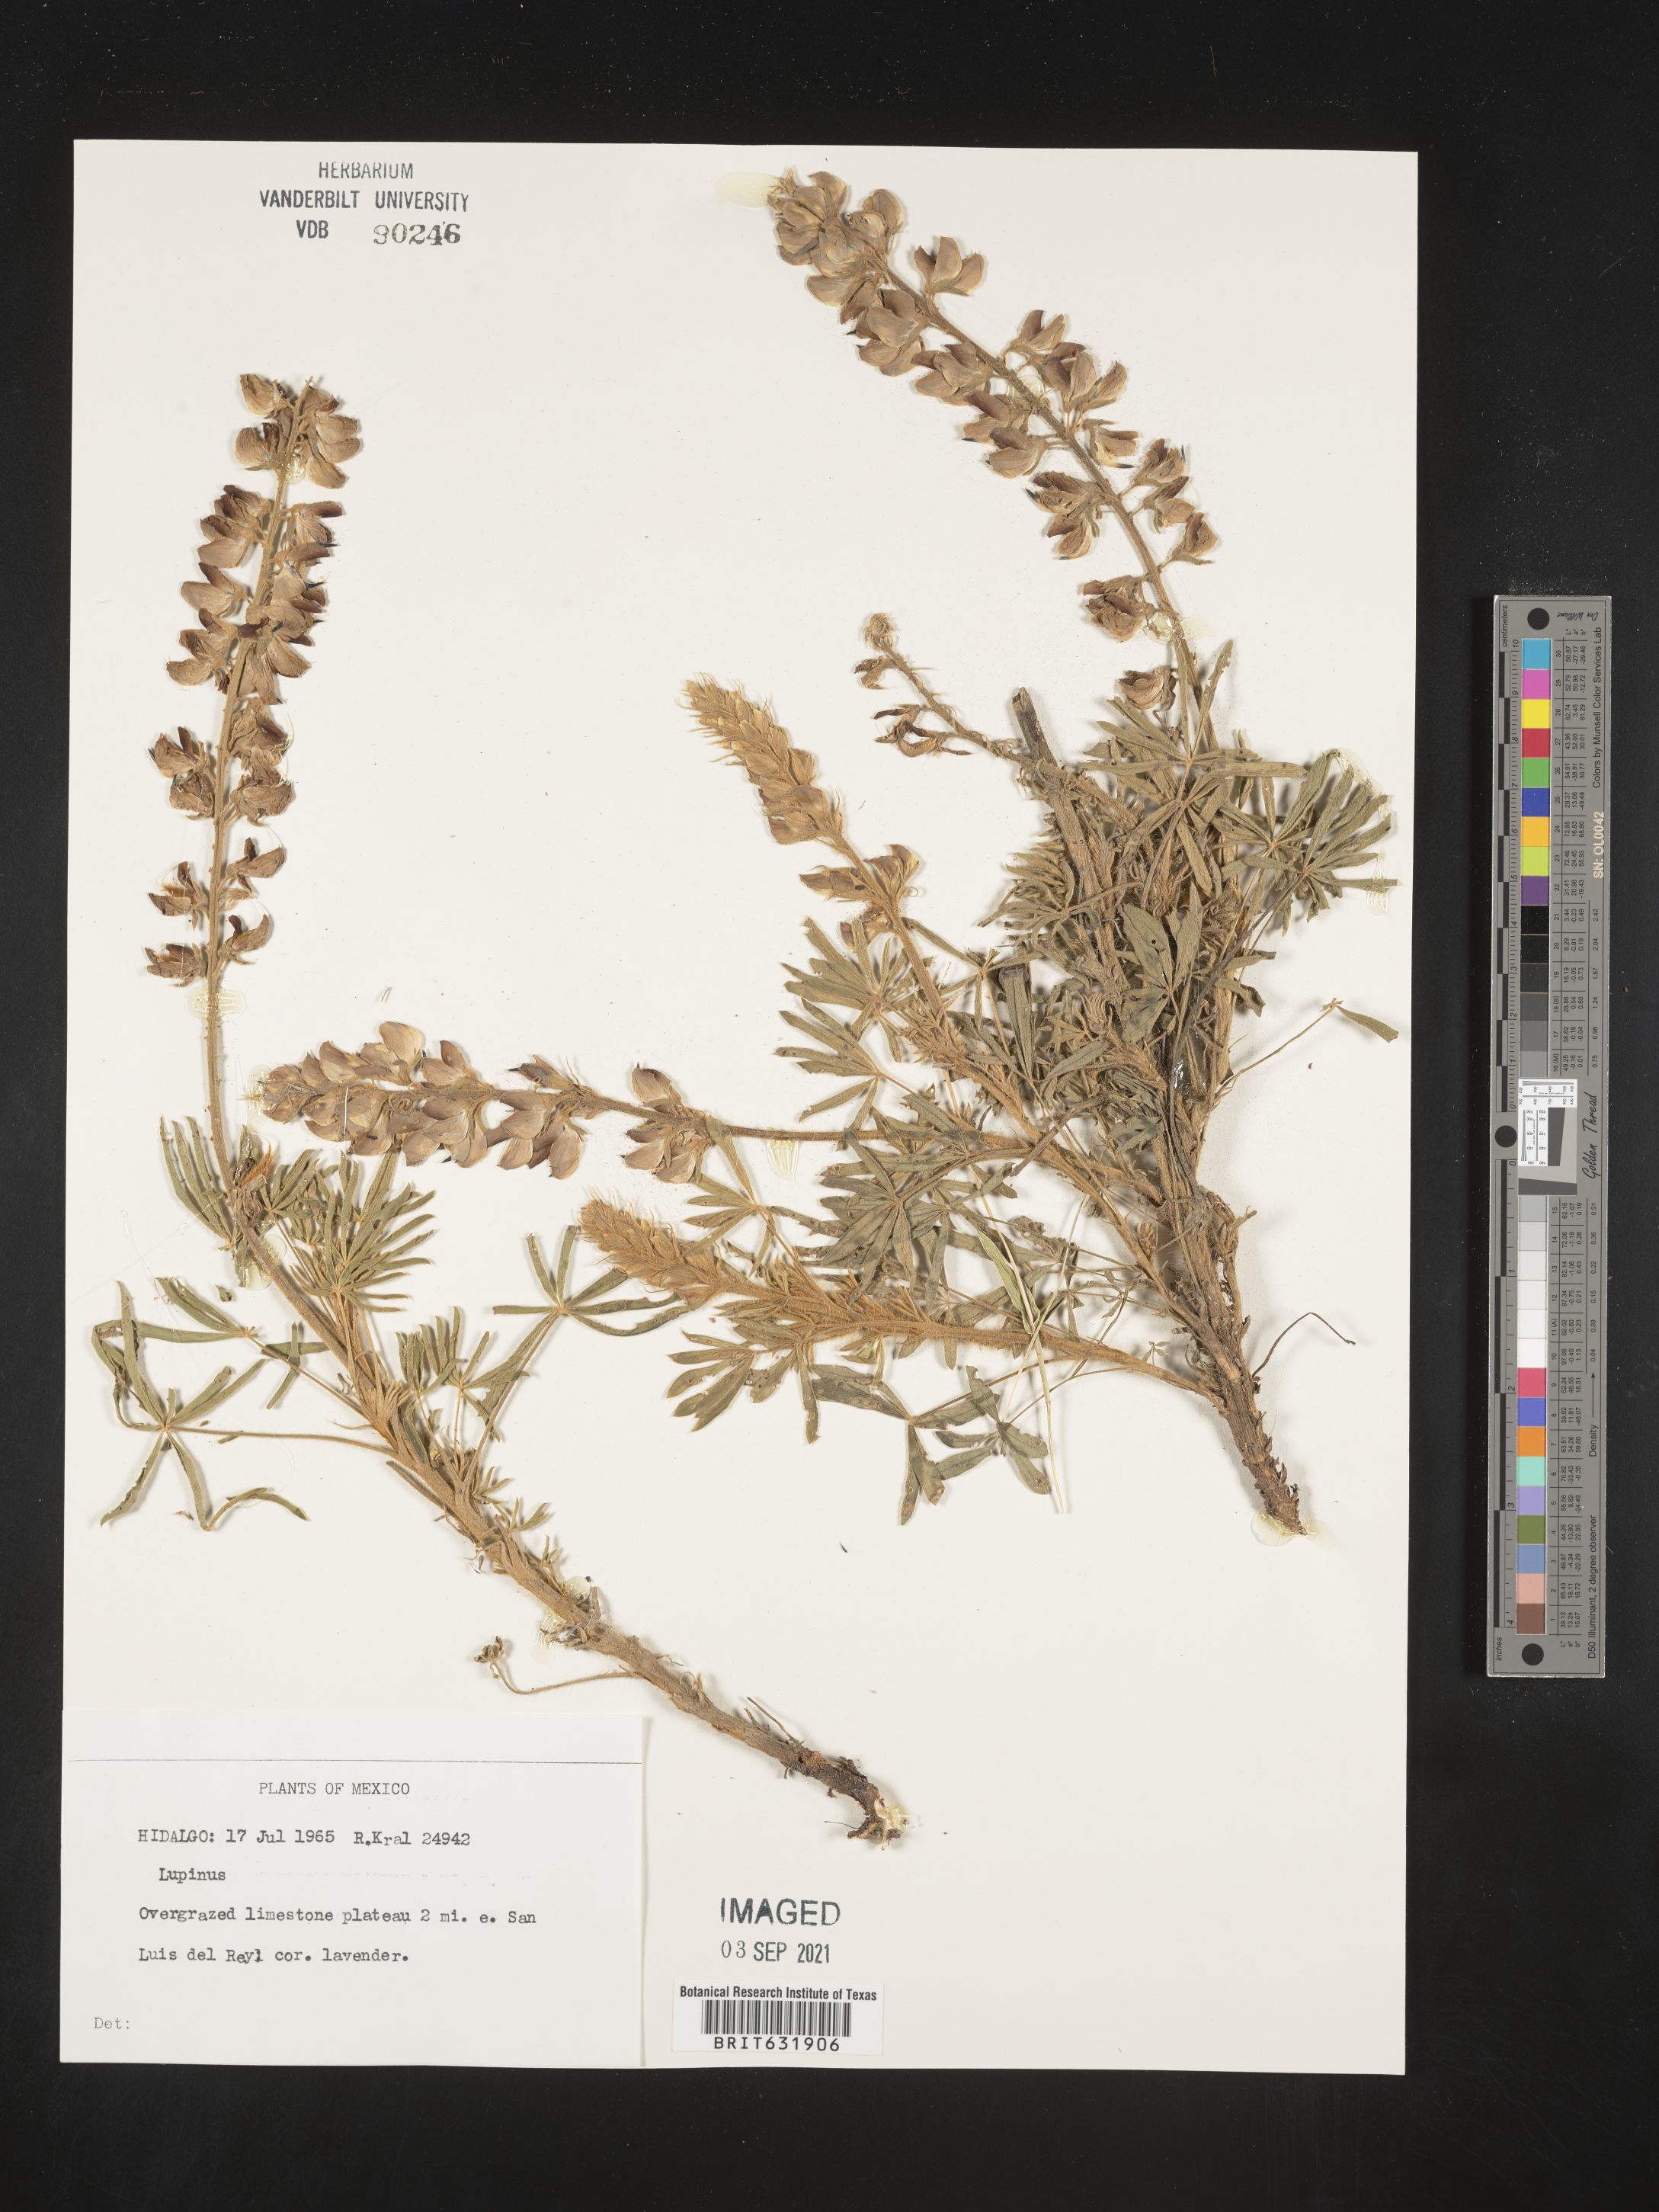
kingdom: Plantae
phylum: Tracheophyta
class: Magnoliopsida
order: Fabales
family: Fabaceae
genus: Lupinus
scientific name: Lupinus
